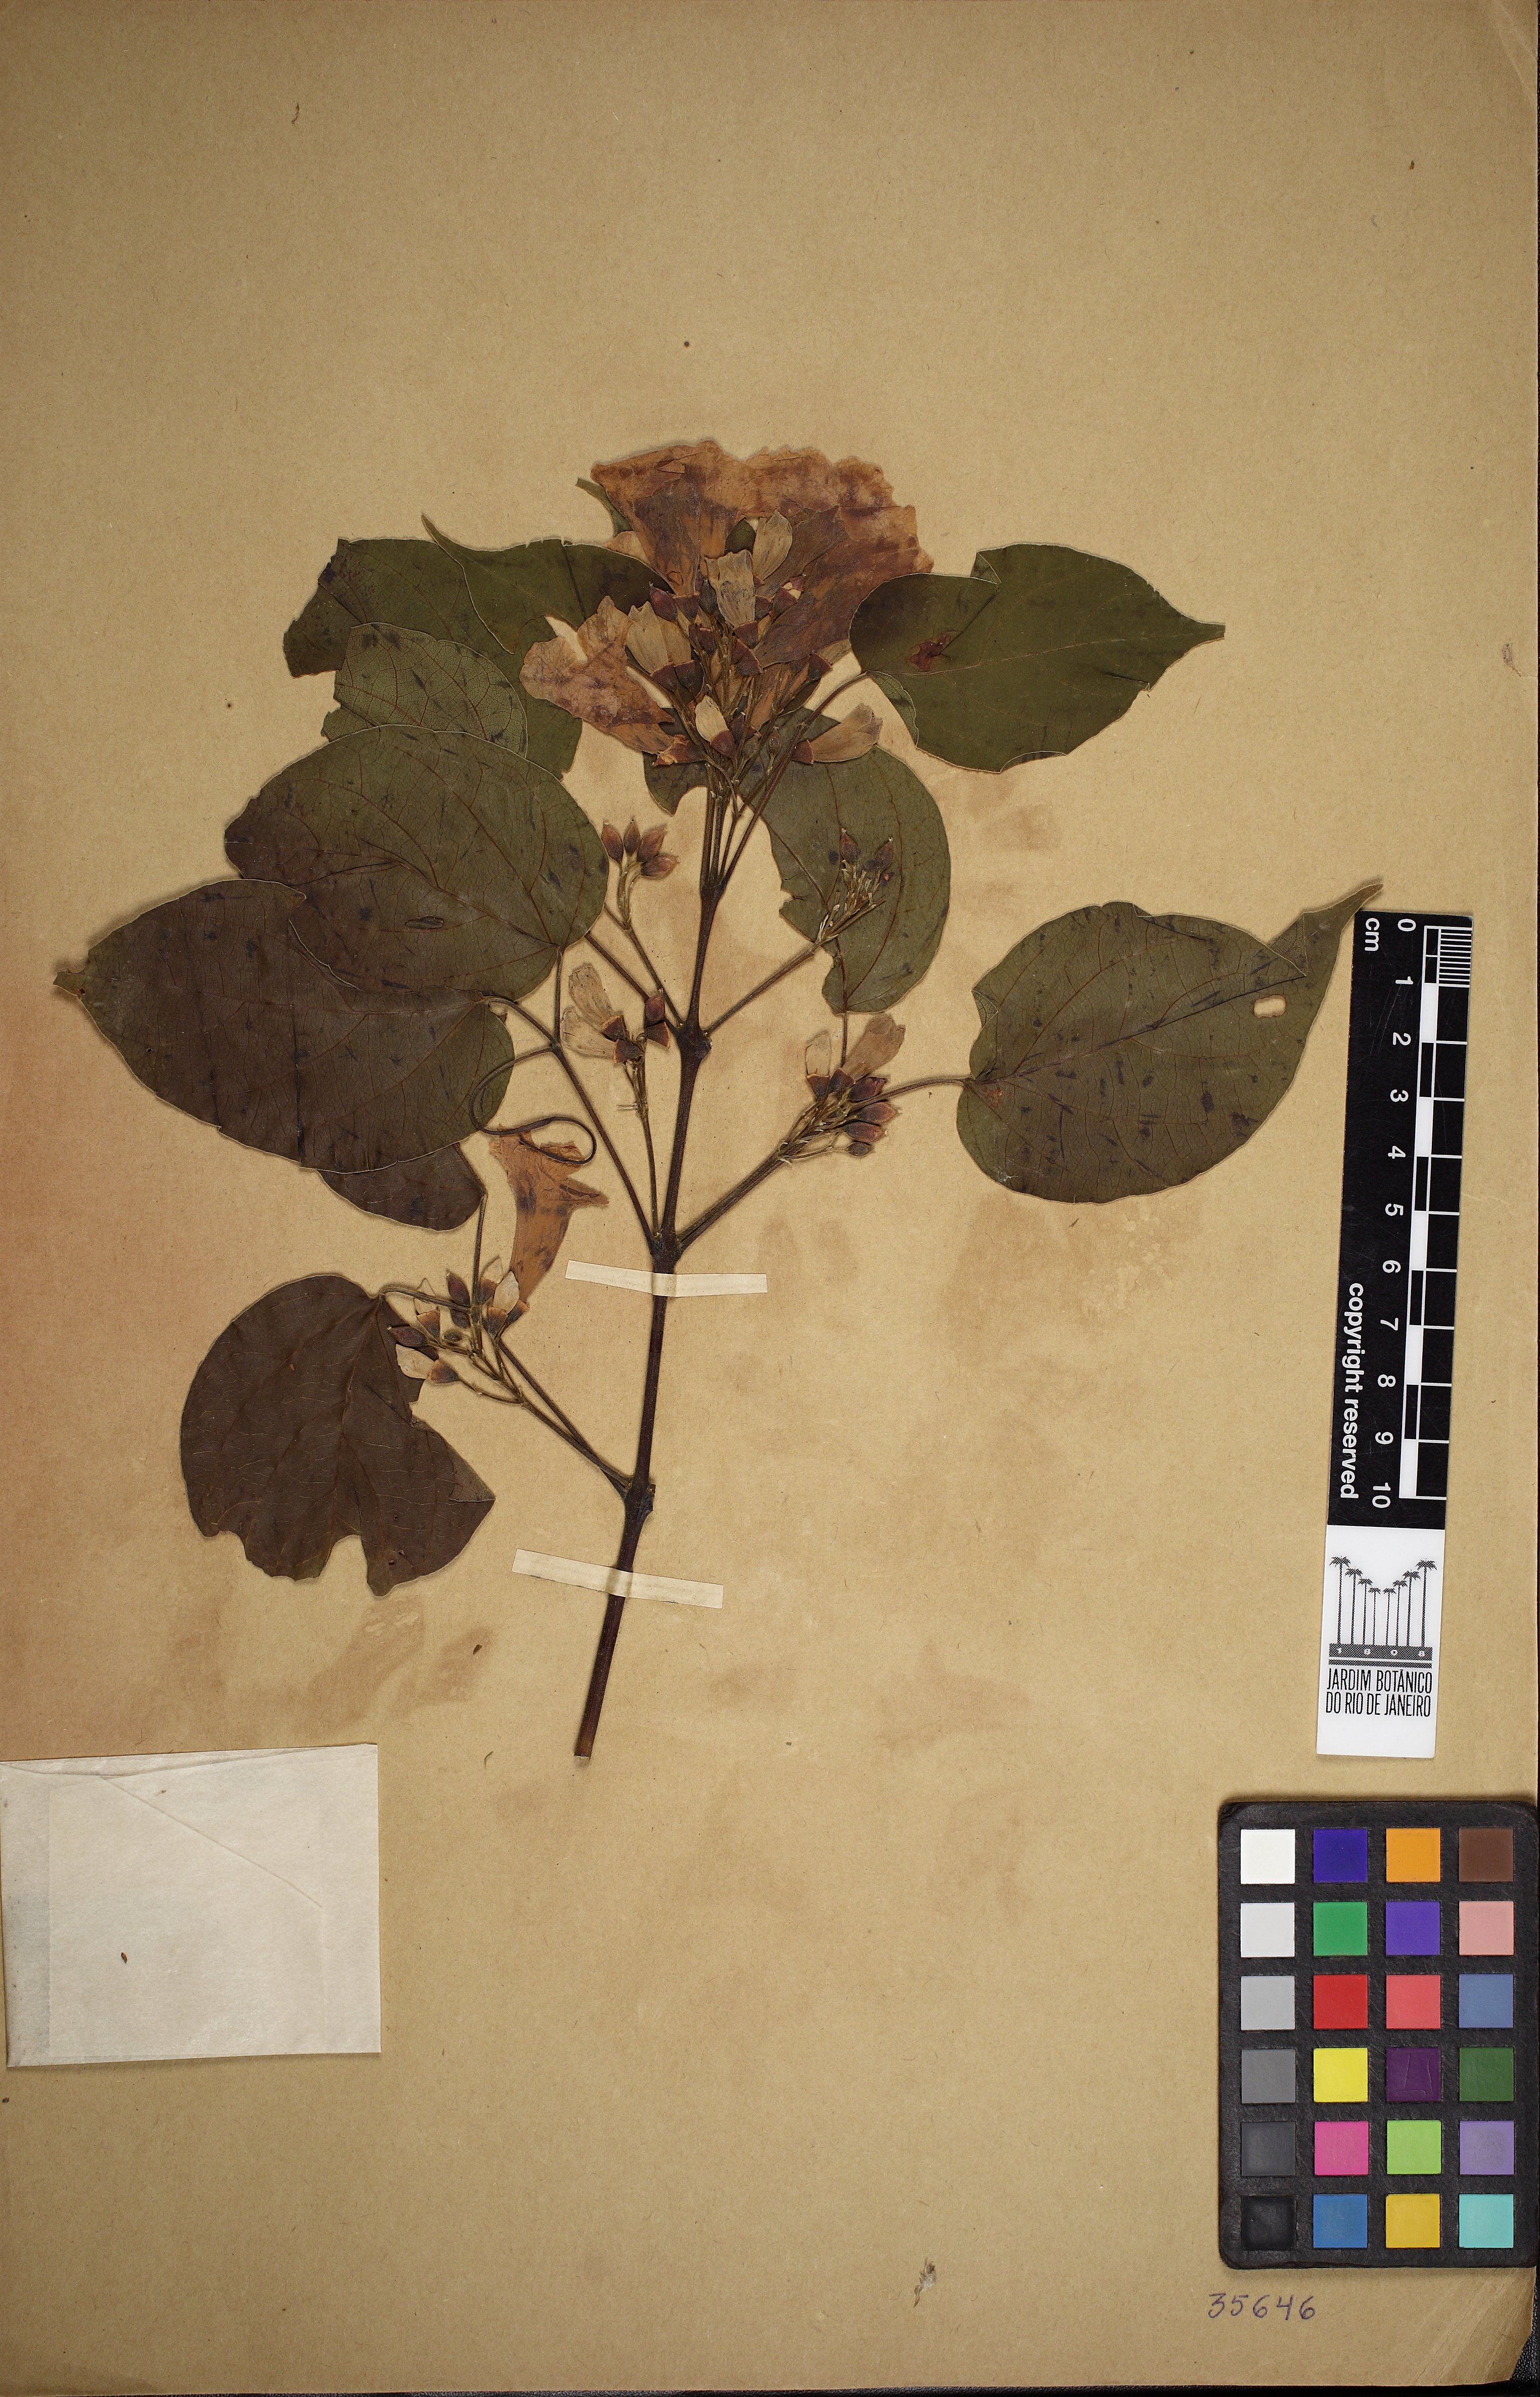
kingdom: Plantae
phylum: Tracheophyta
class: Magnoliopsida
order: Lamiales
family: Bignoniaceae
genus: Lundia
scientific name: Lundia corymbifera
